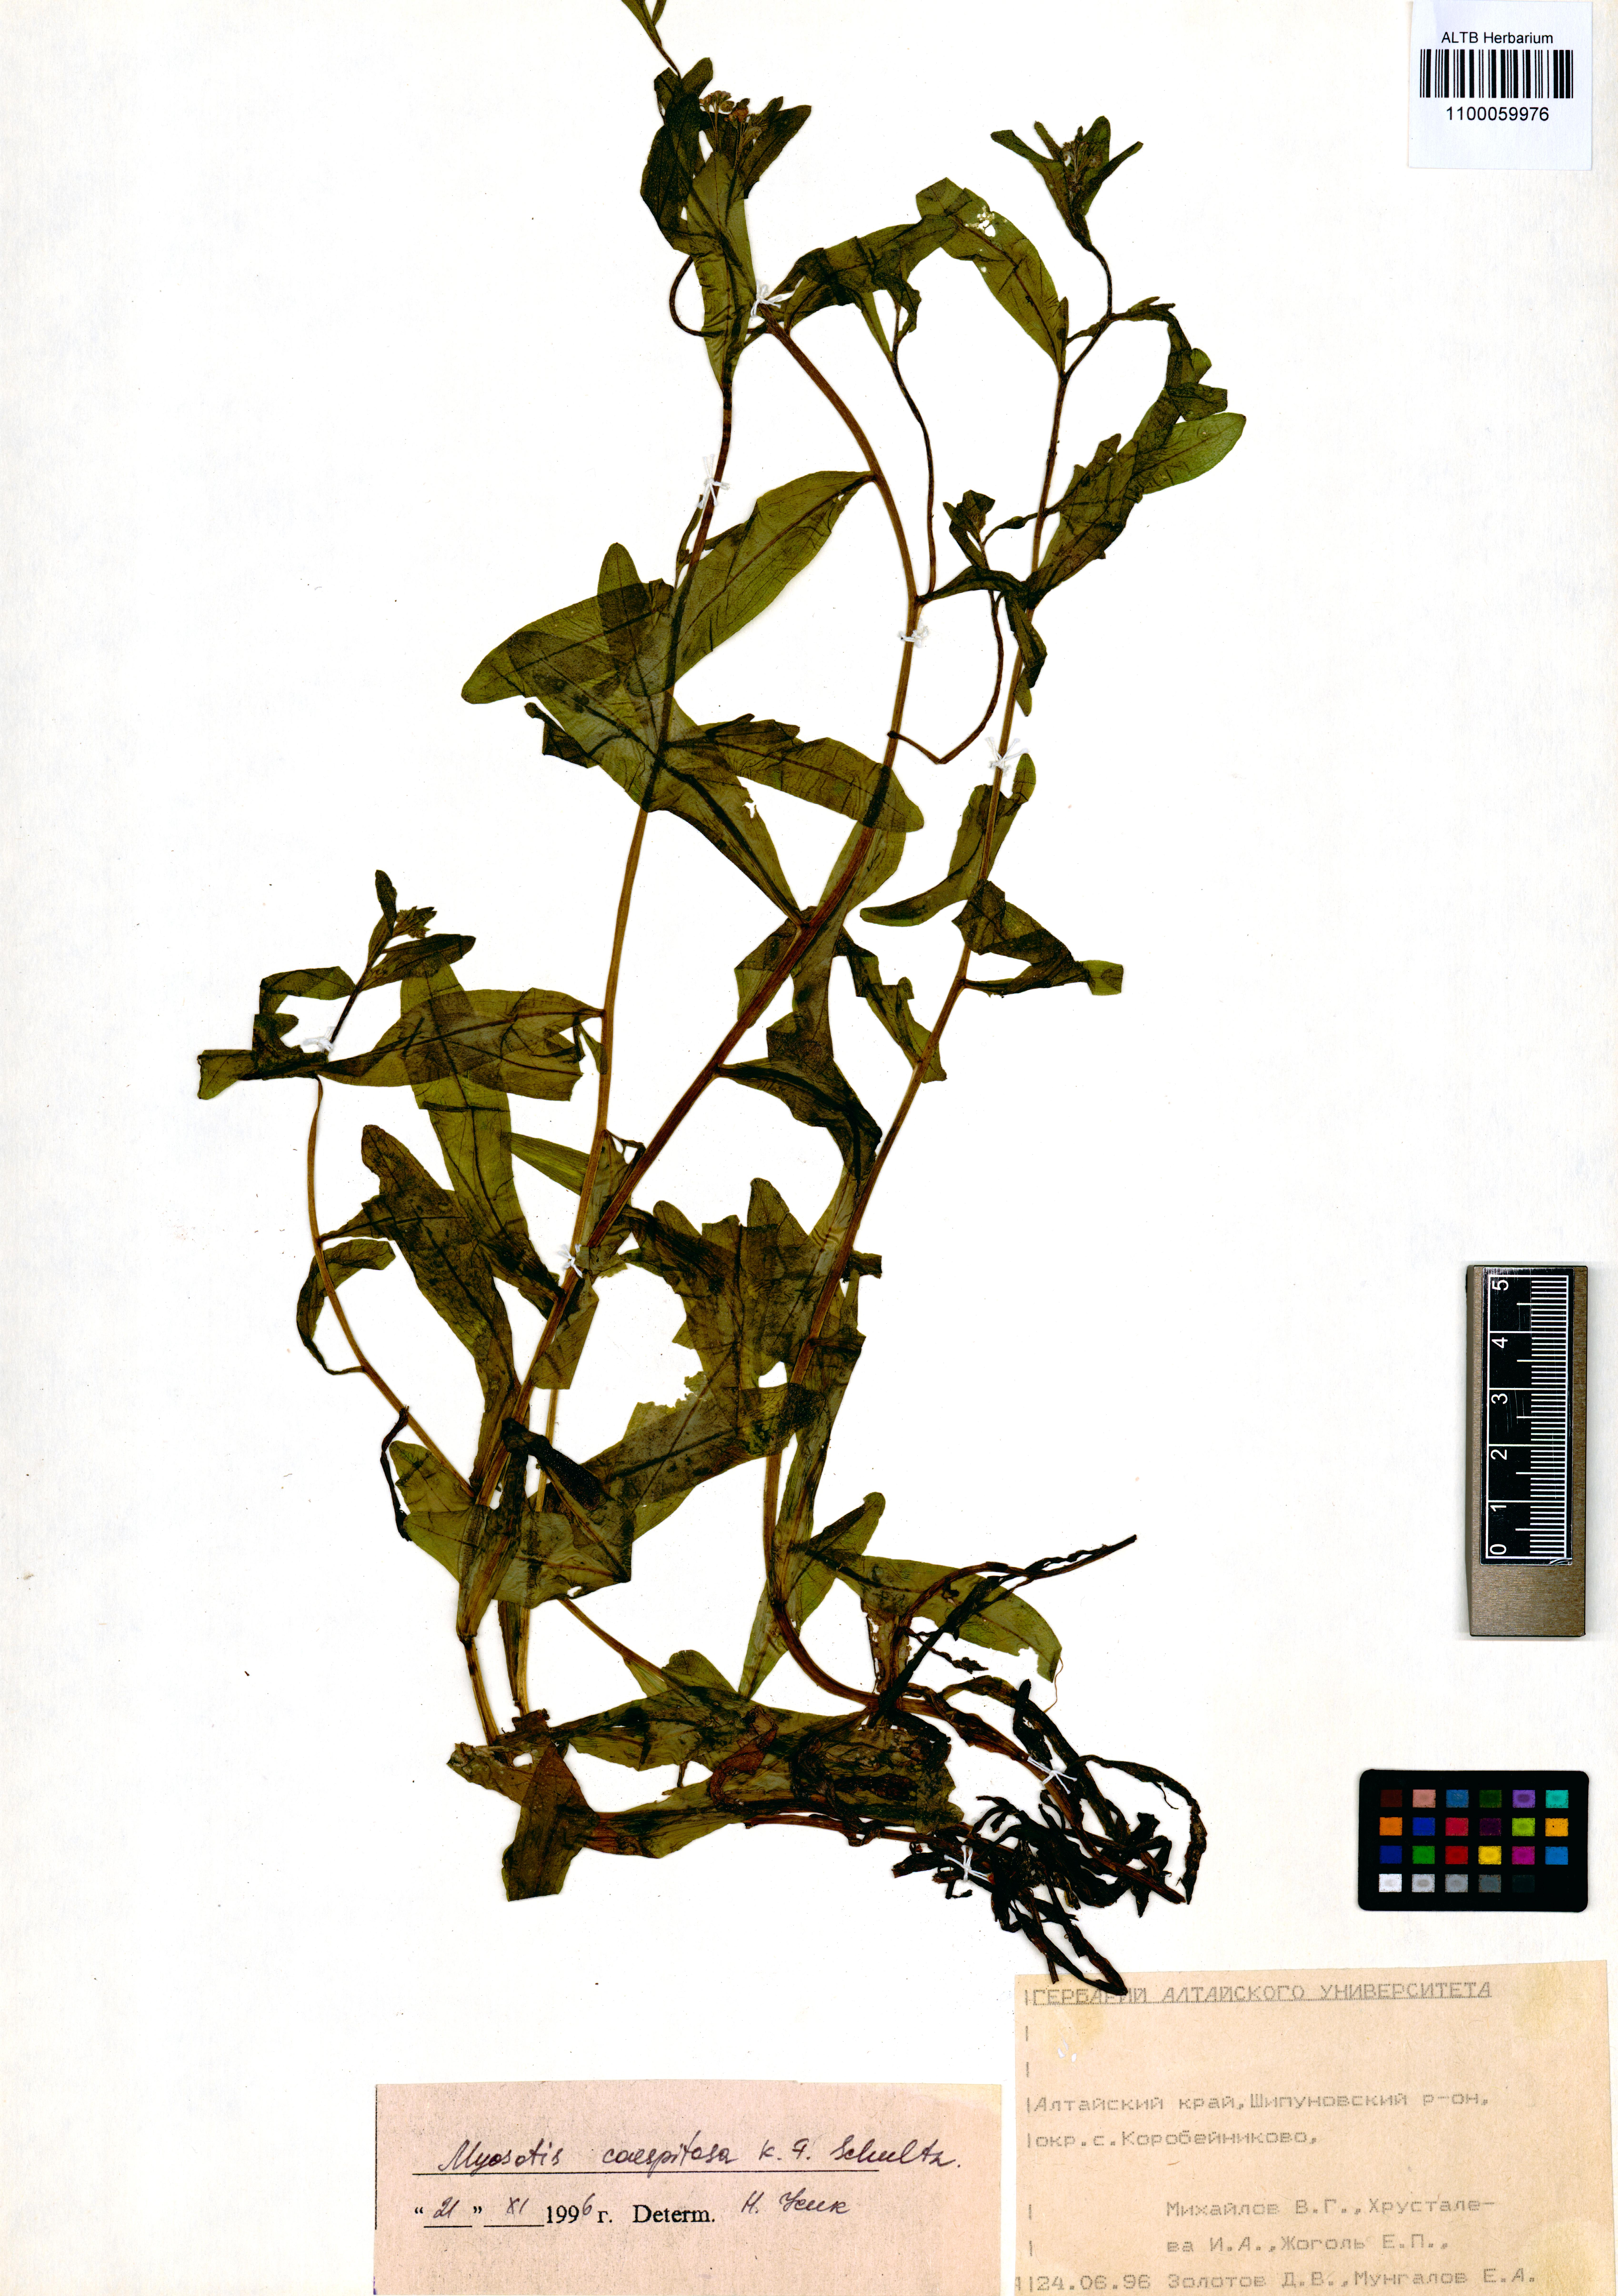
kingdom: Plantae
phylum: Tracheophyta
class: Magnoliopsida
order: Boraginales
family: Boraginaceae
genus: Myosotis
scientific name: Myosotis laxa
